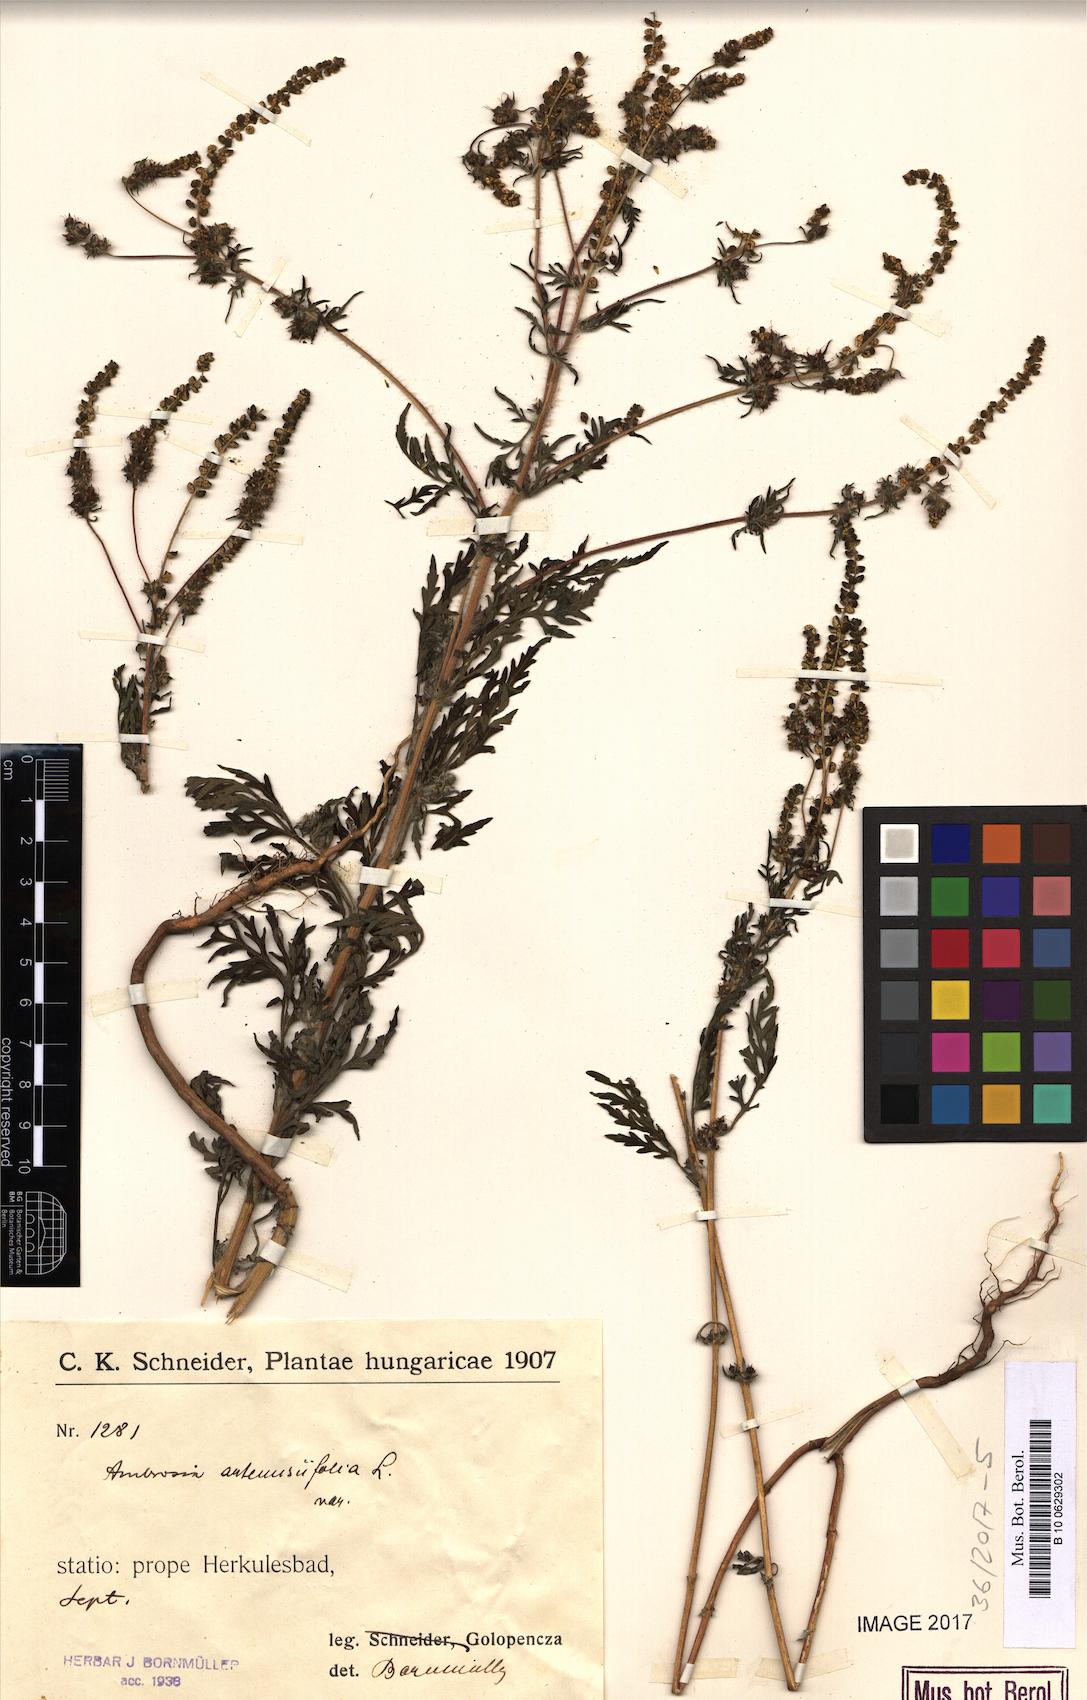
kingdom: Plantae
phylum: Tracheophyta
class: Magnoliopsida
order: Asterales
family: Asteraceae
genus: Ambrosia
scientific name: Ambrosia artemisiifolia
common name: Annual ragweed
